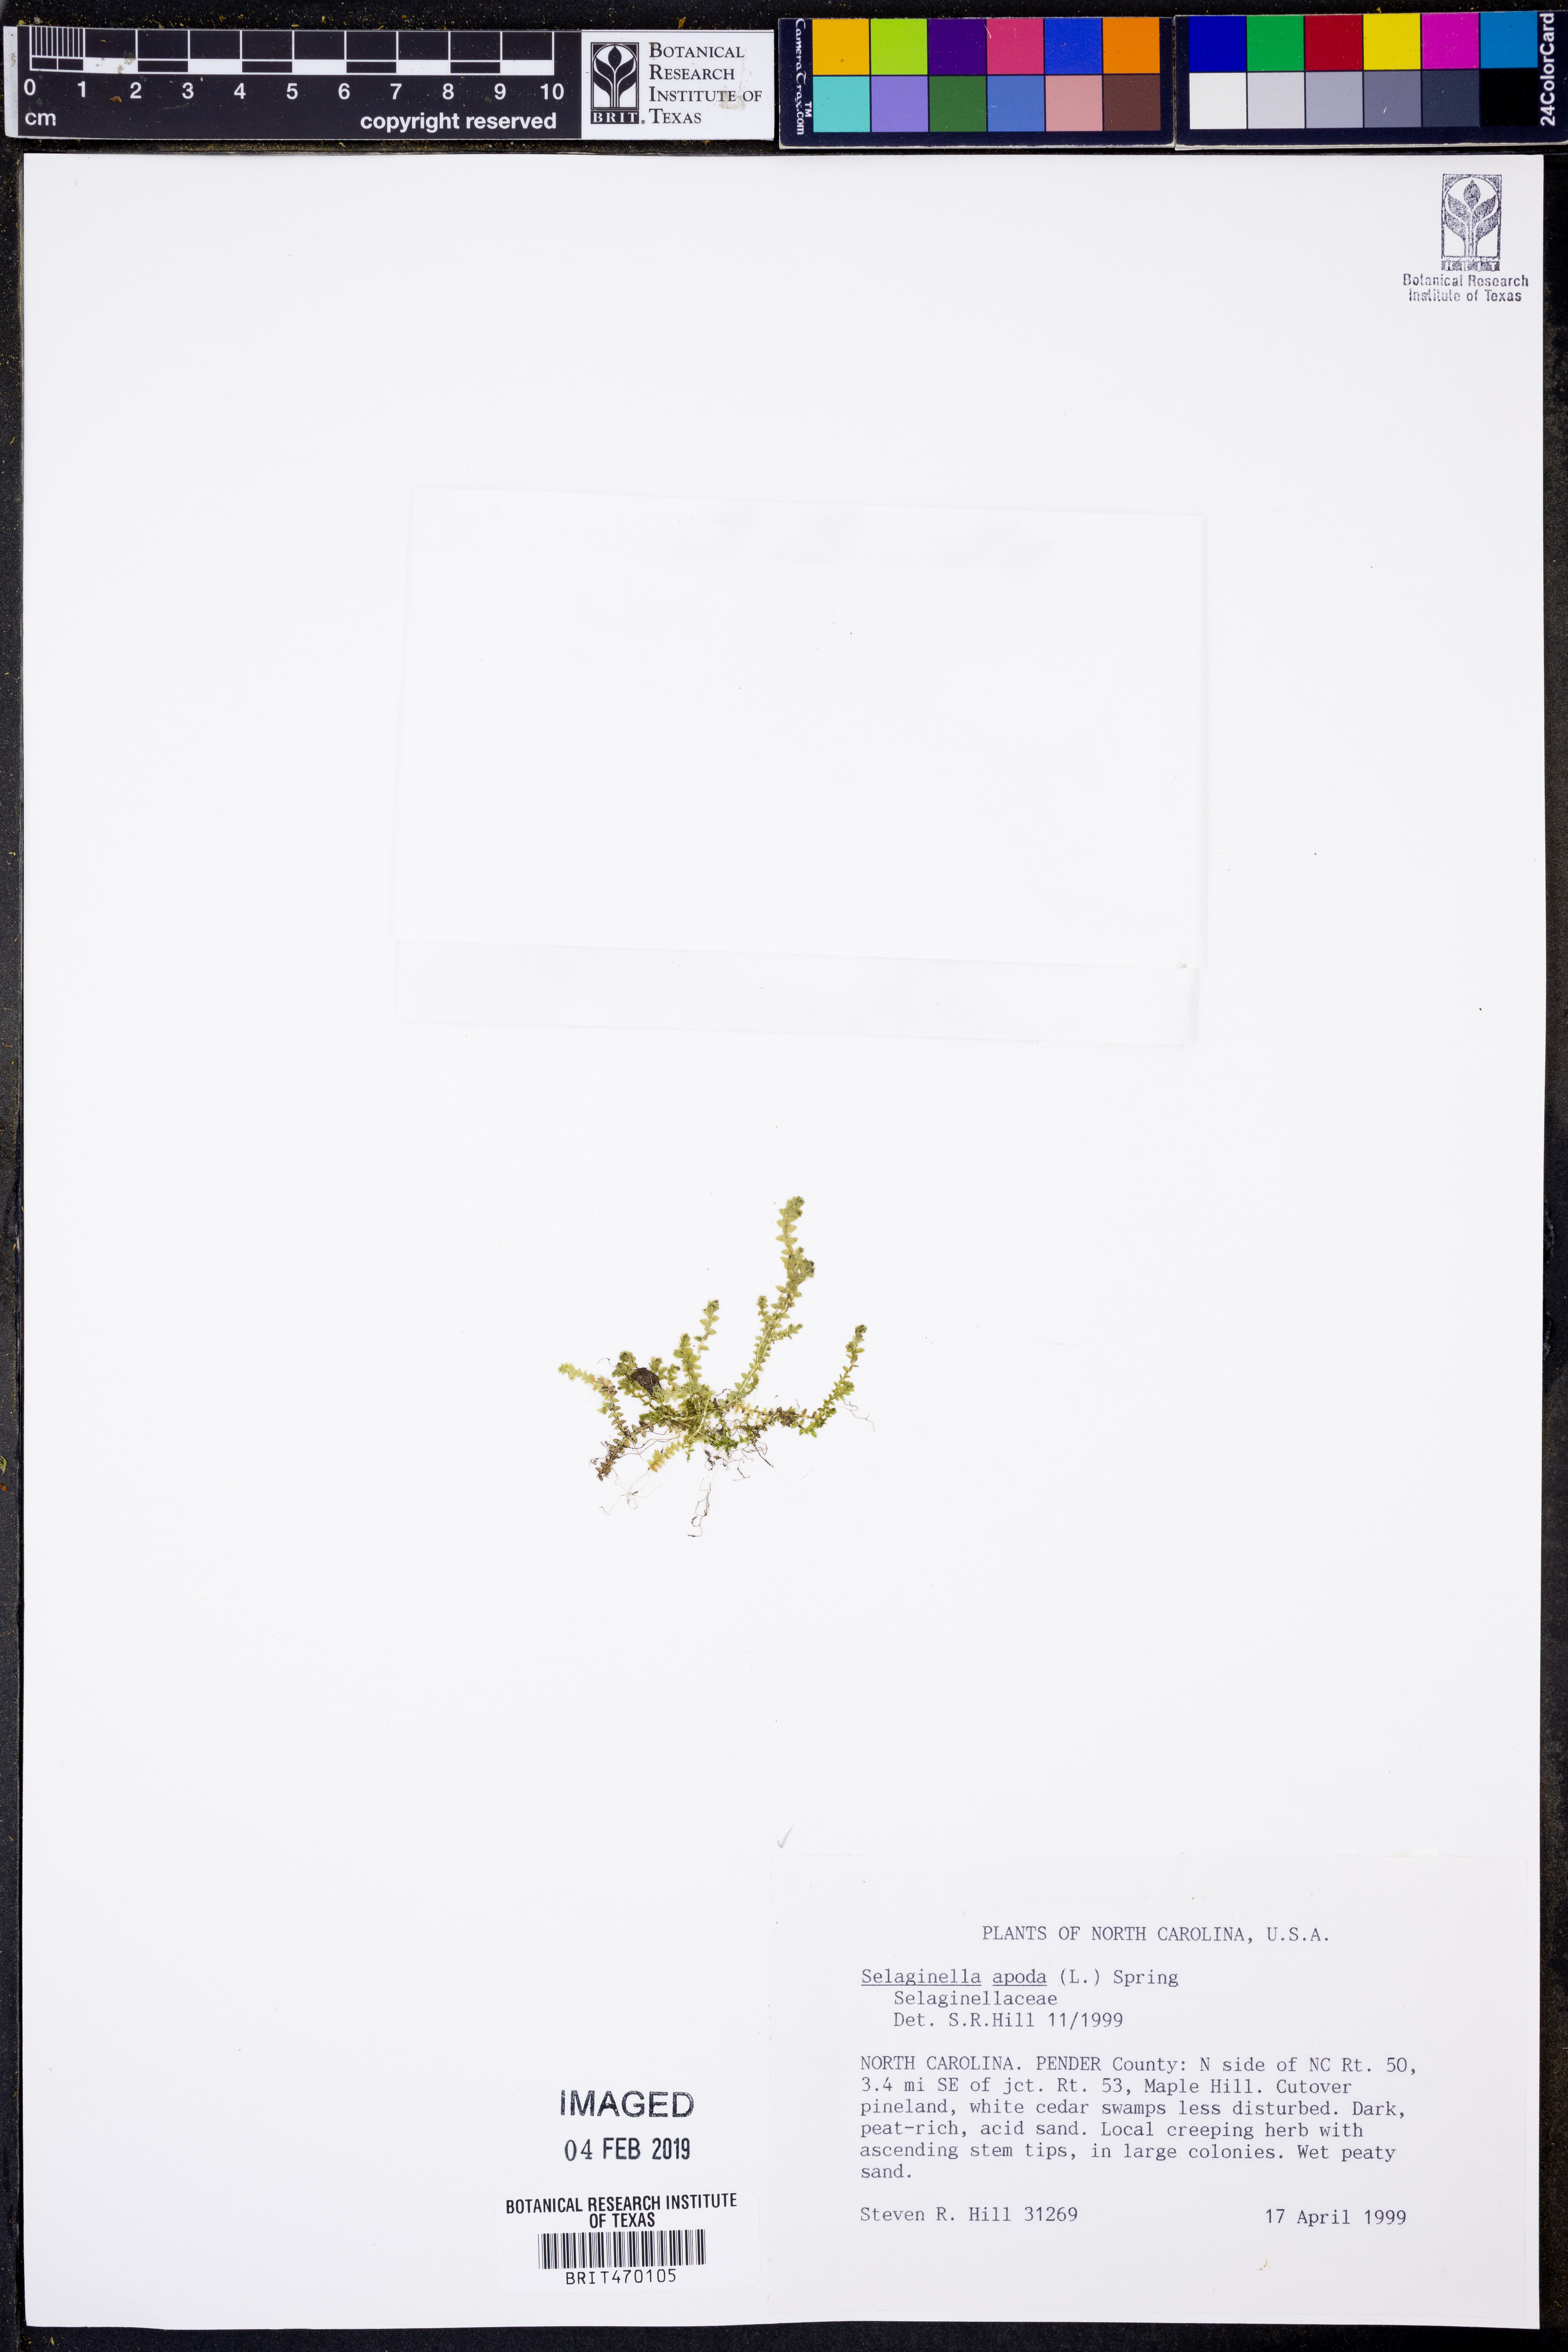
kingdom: Plantae
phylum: Tracheophyta
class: Lycopodiopsida
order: Selaginellales
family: Selaginellaceae
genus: Selaginella
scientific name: Selaginella apoda
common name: Creeping spikemoss
